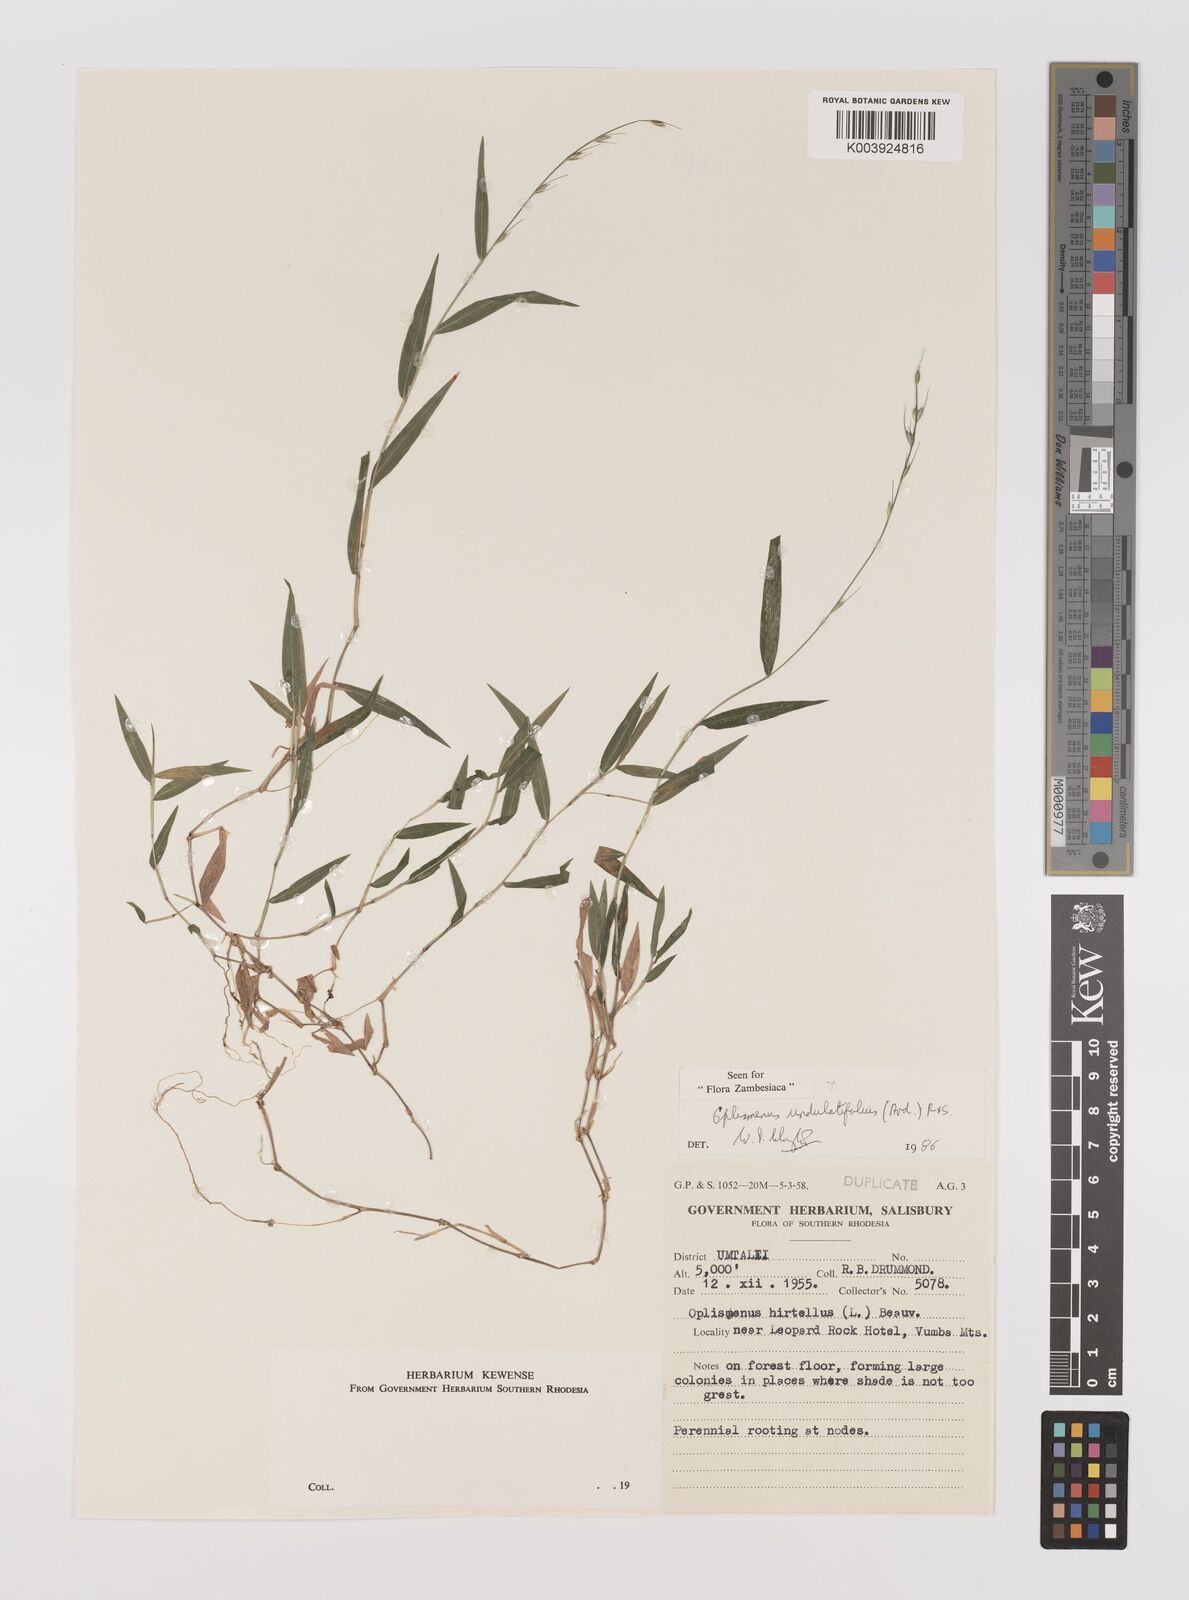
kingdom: Plantae
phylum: Tracheophyta
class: Liliopsida
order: Poales
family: Poaceae
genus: Oplismenus
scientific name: Oplismenus undulatifolius
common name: Wavyleaf basketgrass
